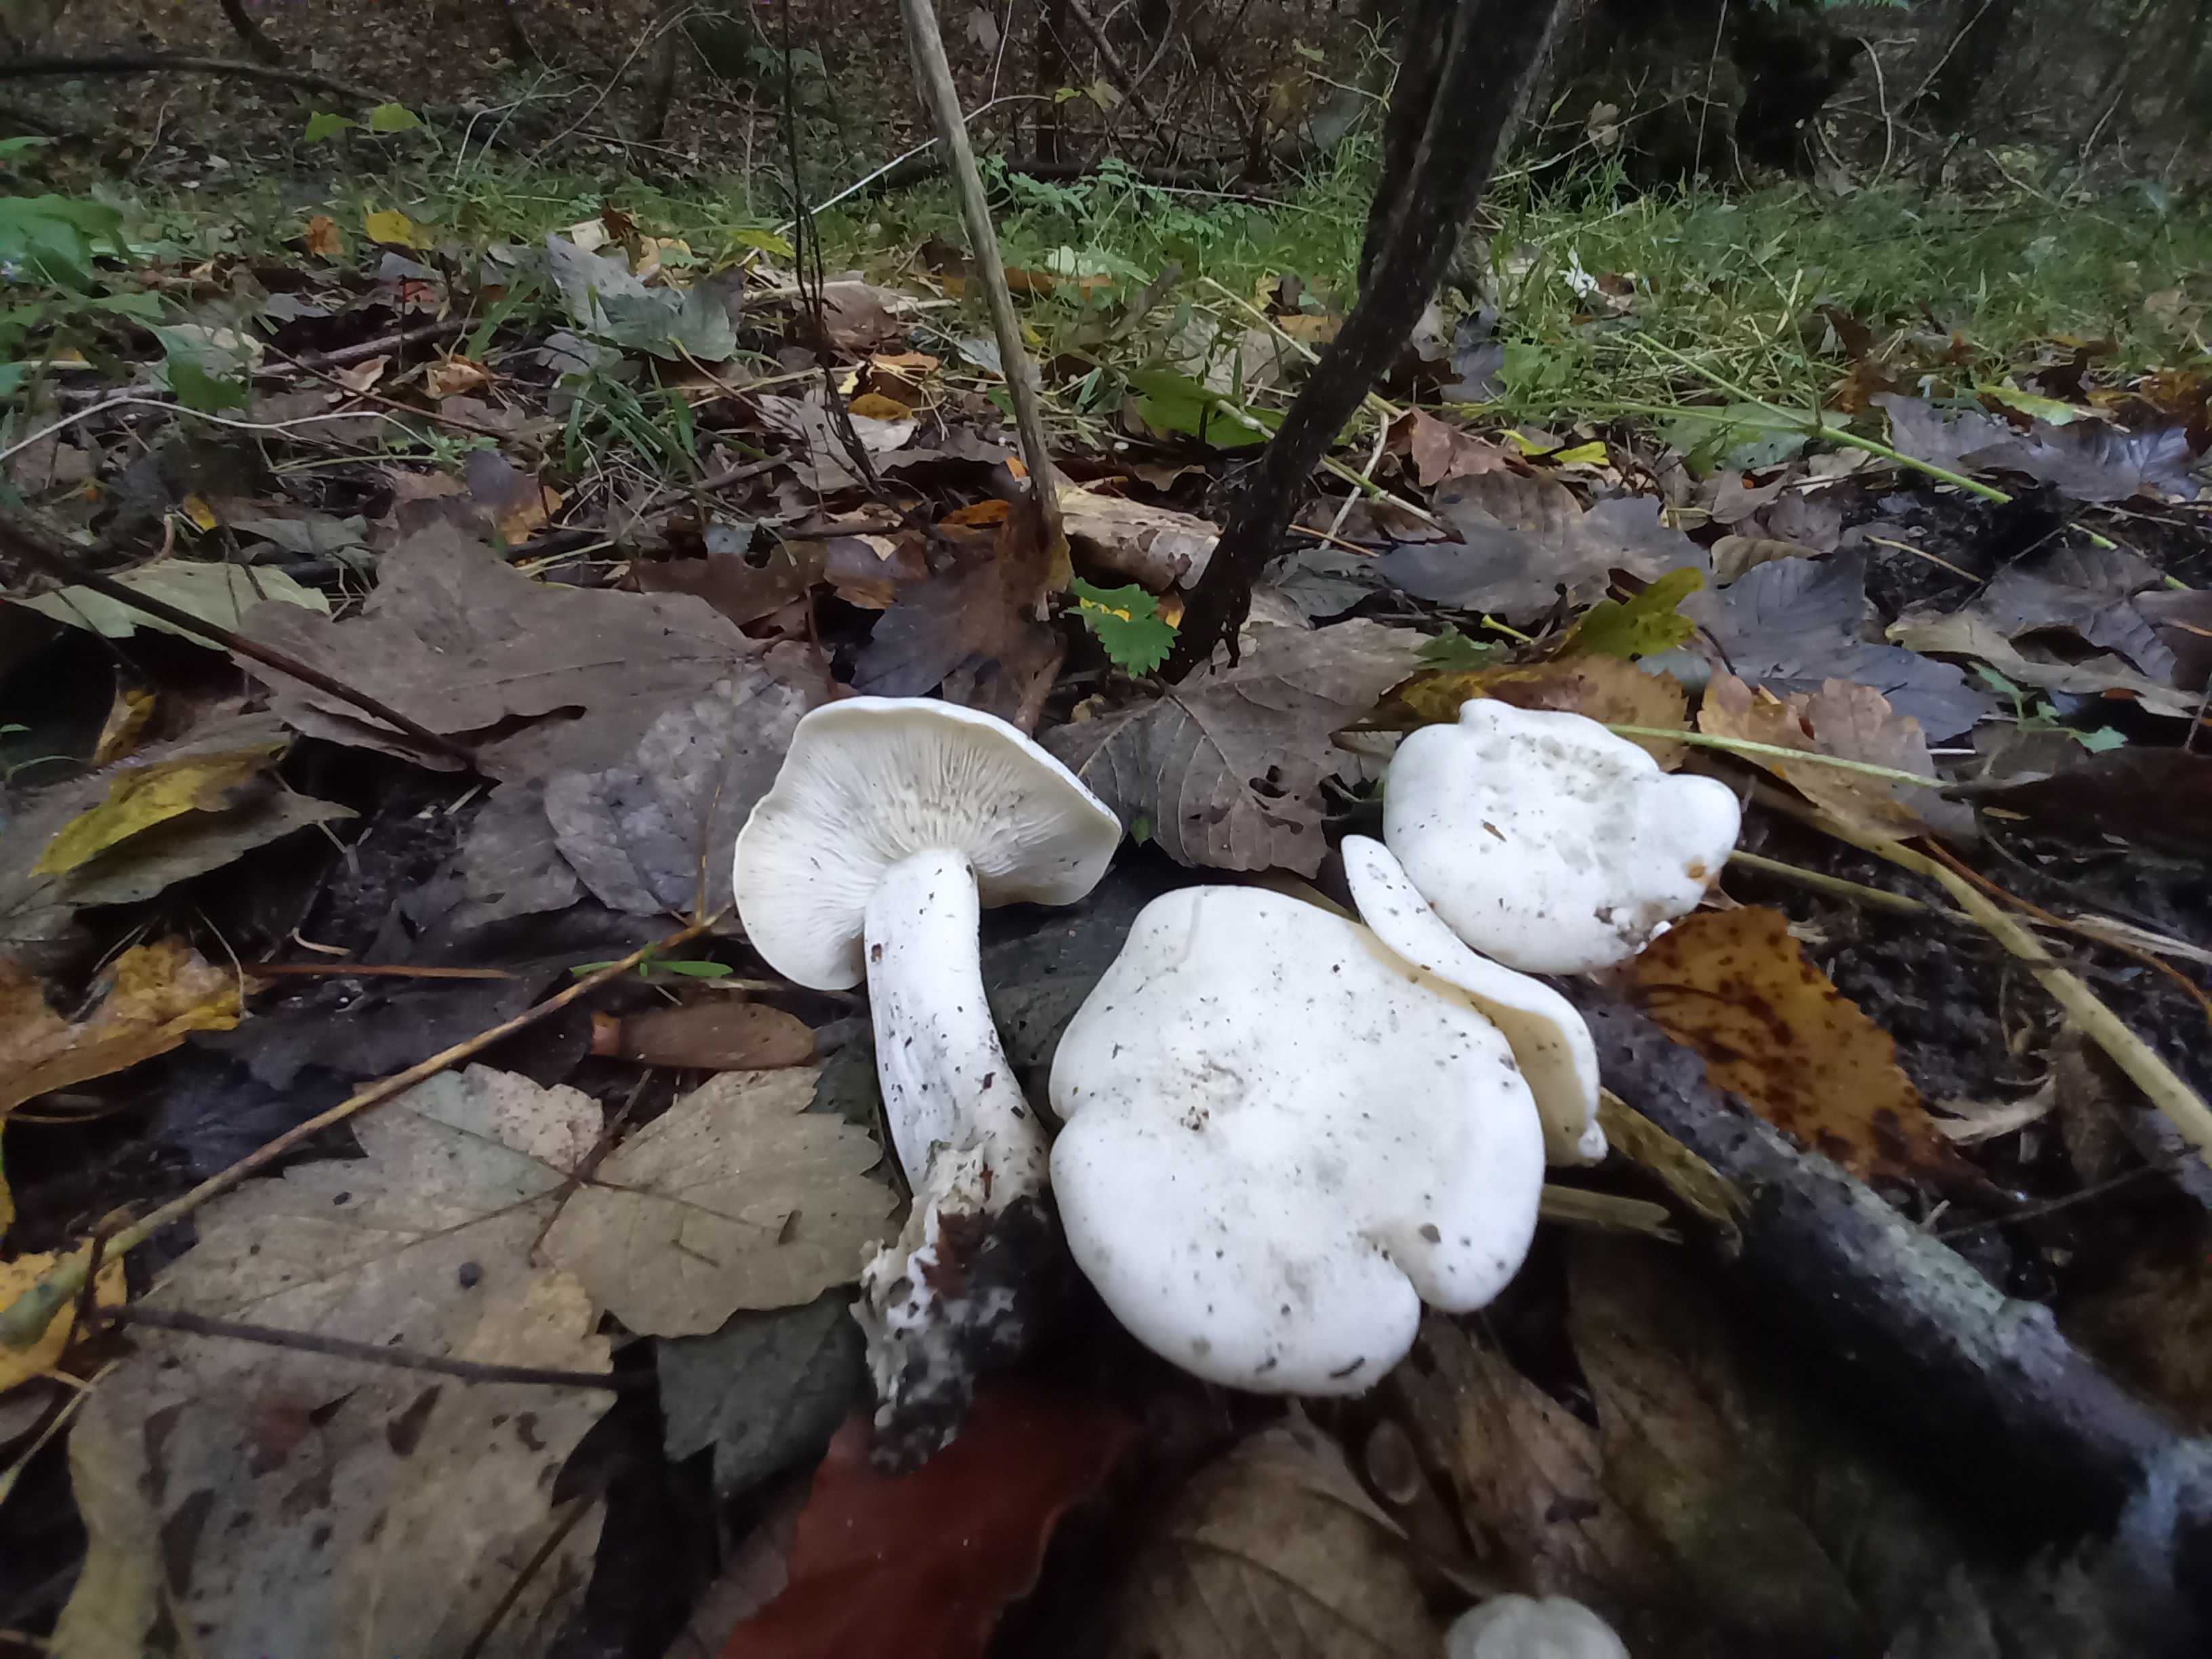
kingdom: Fungi
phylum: Basidiomycota
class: Agaricomycetes
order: Agaricales
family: Tricholomataceae
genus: Leucocybe
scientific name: Leucocybe connata
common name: knippe-tragthat
